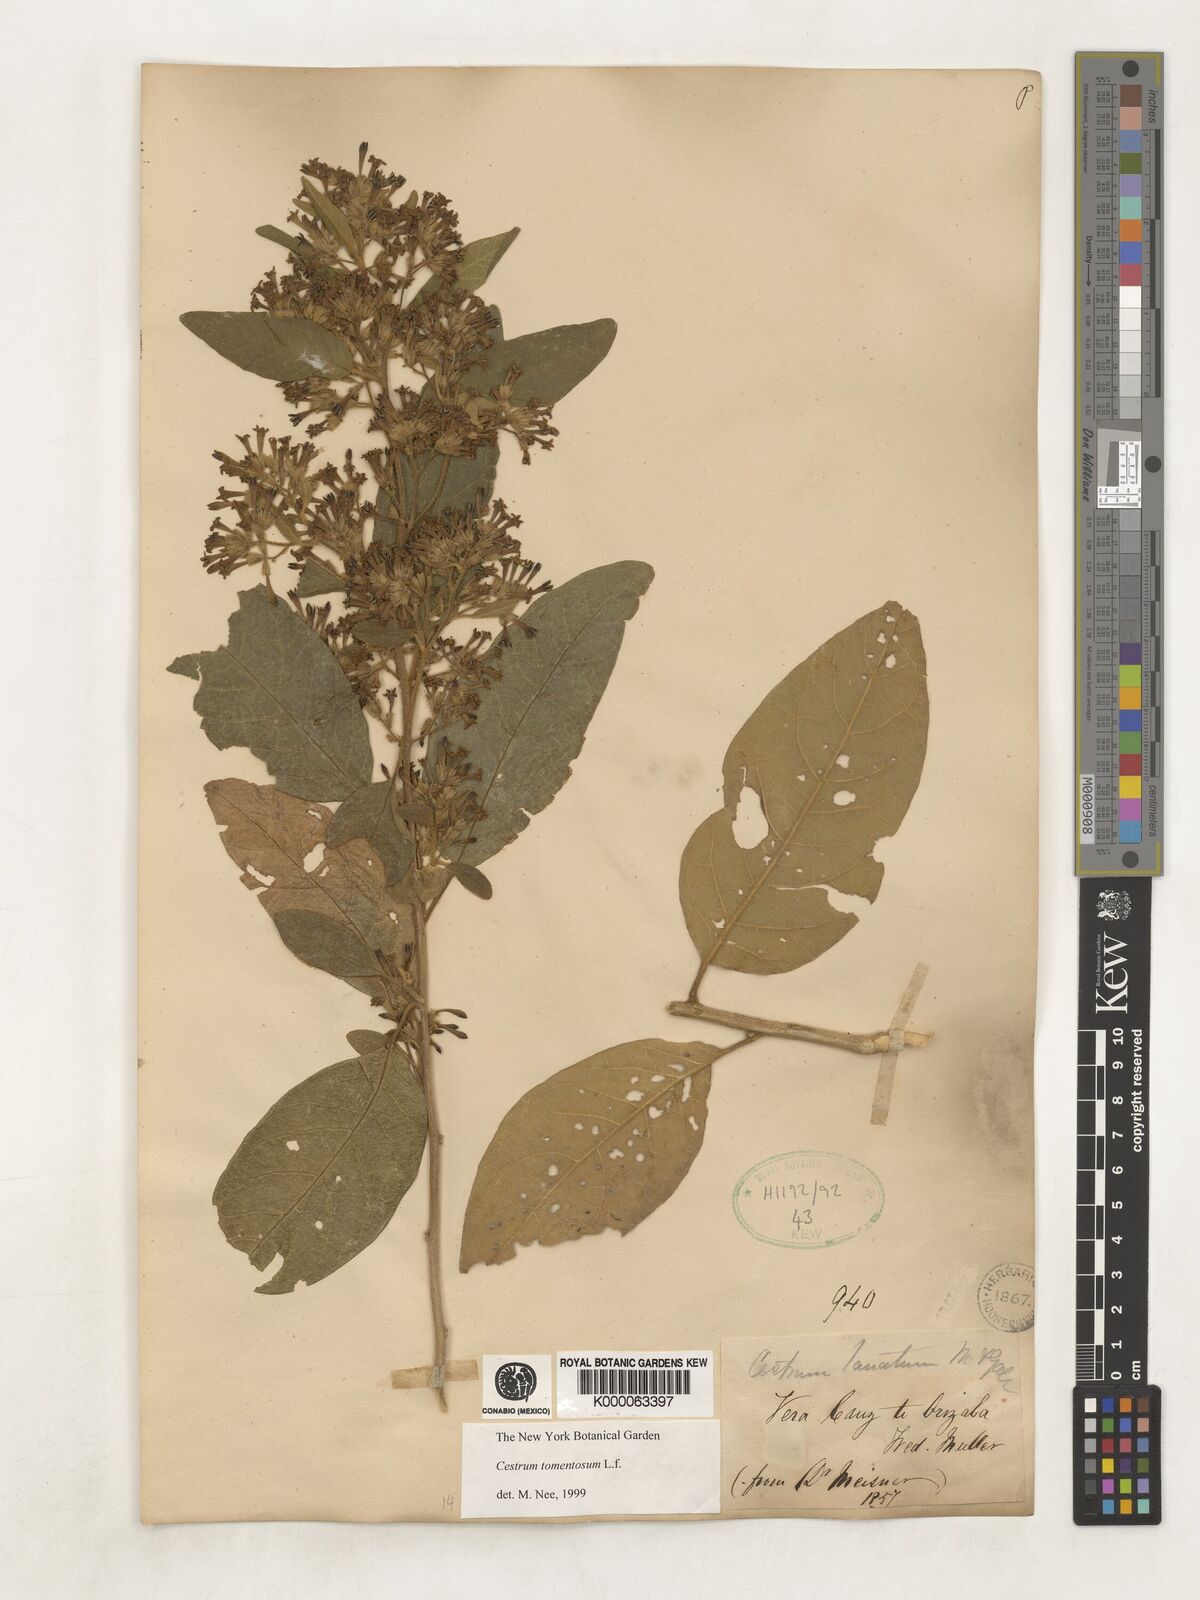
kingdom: Plantae
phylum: Tracheophyta
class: Magnoliopsida
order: Solanales
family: Solanaceae
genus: Cestrum
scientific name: Cestrum tomentosum
